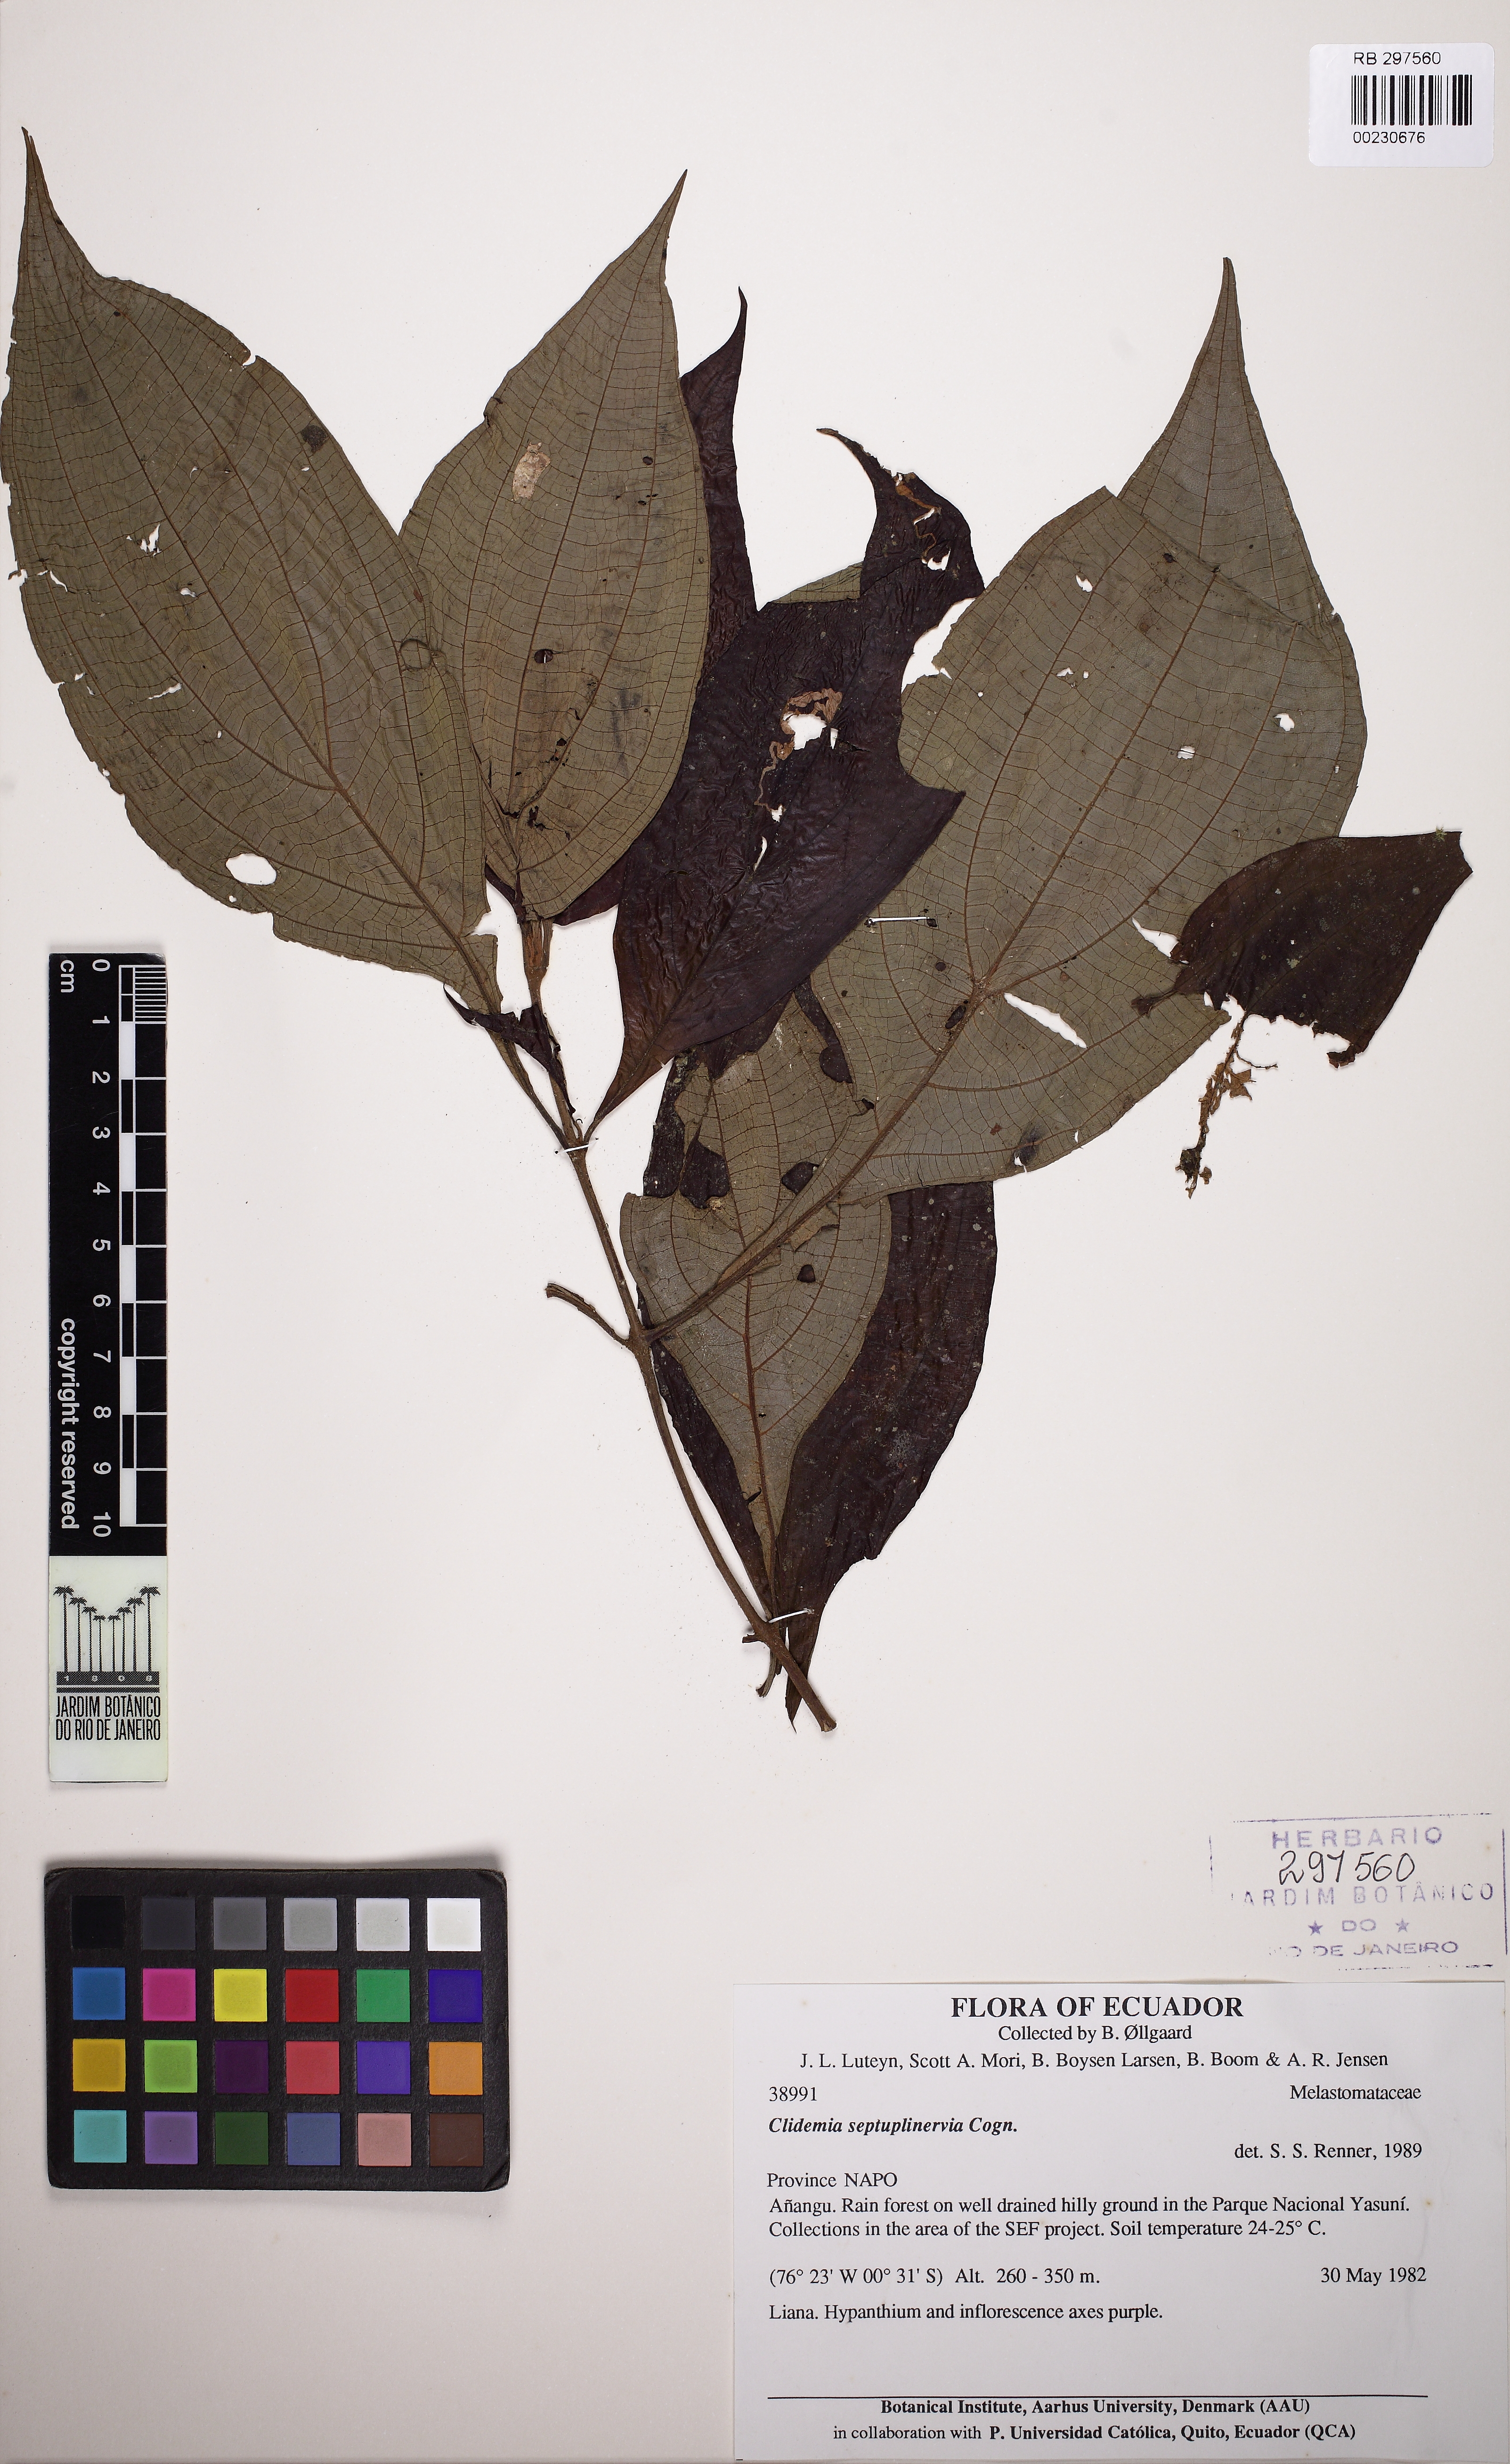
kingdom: Plantae
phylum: Tracheophyta
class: Magnoliopsida
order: Myrtales
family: Melastomataceae
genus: Miconia
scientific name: Miconia trichocalyx
